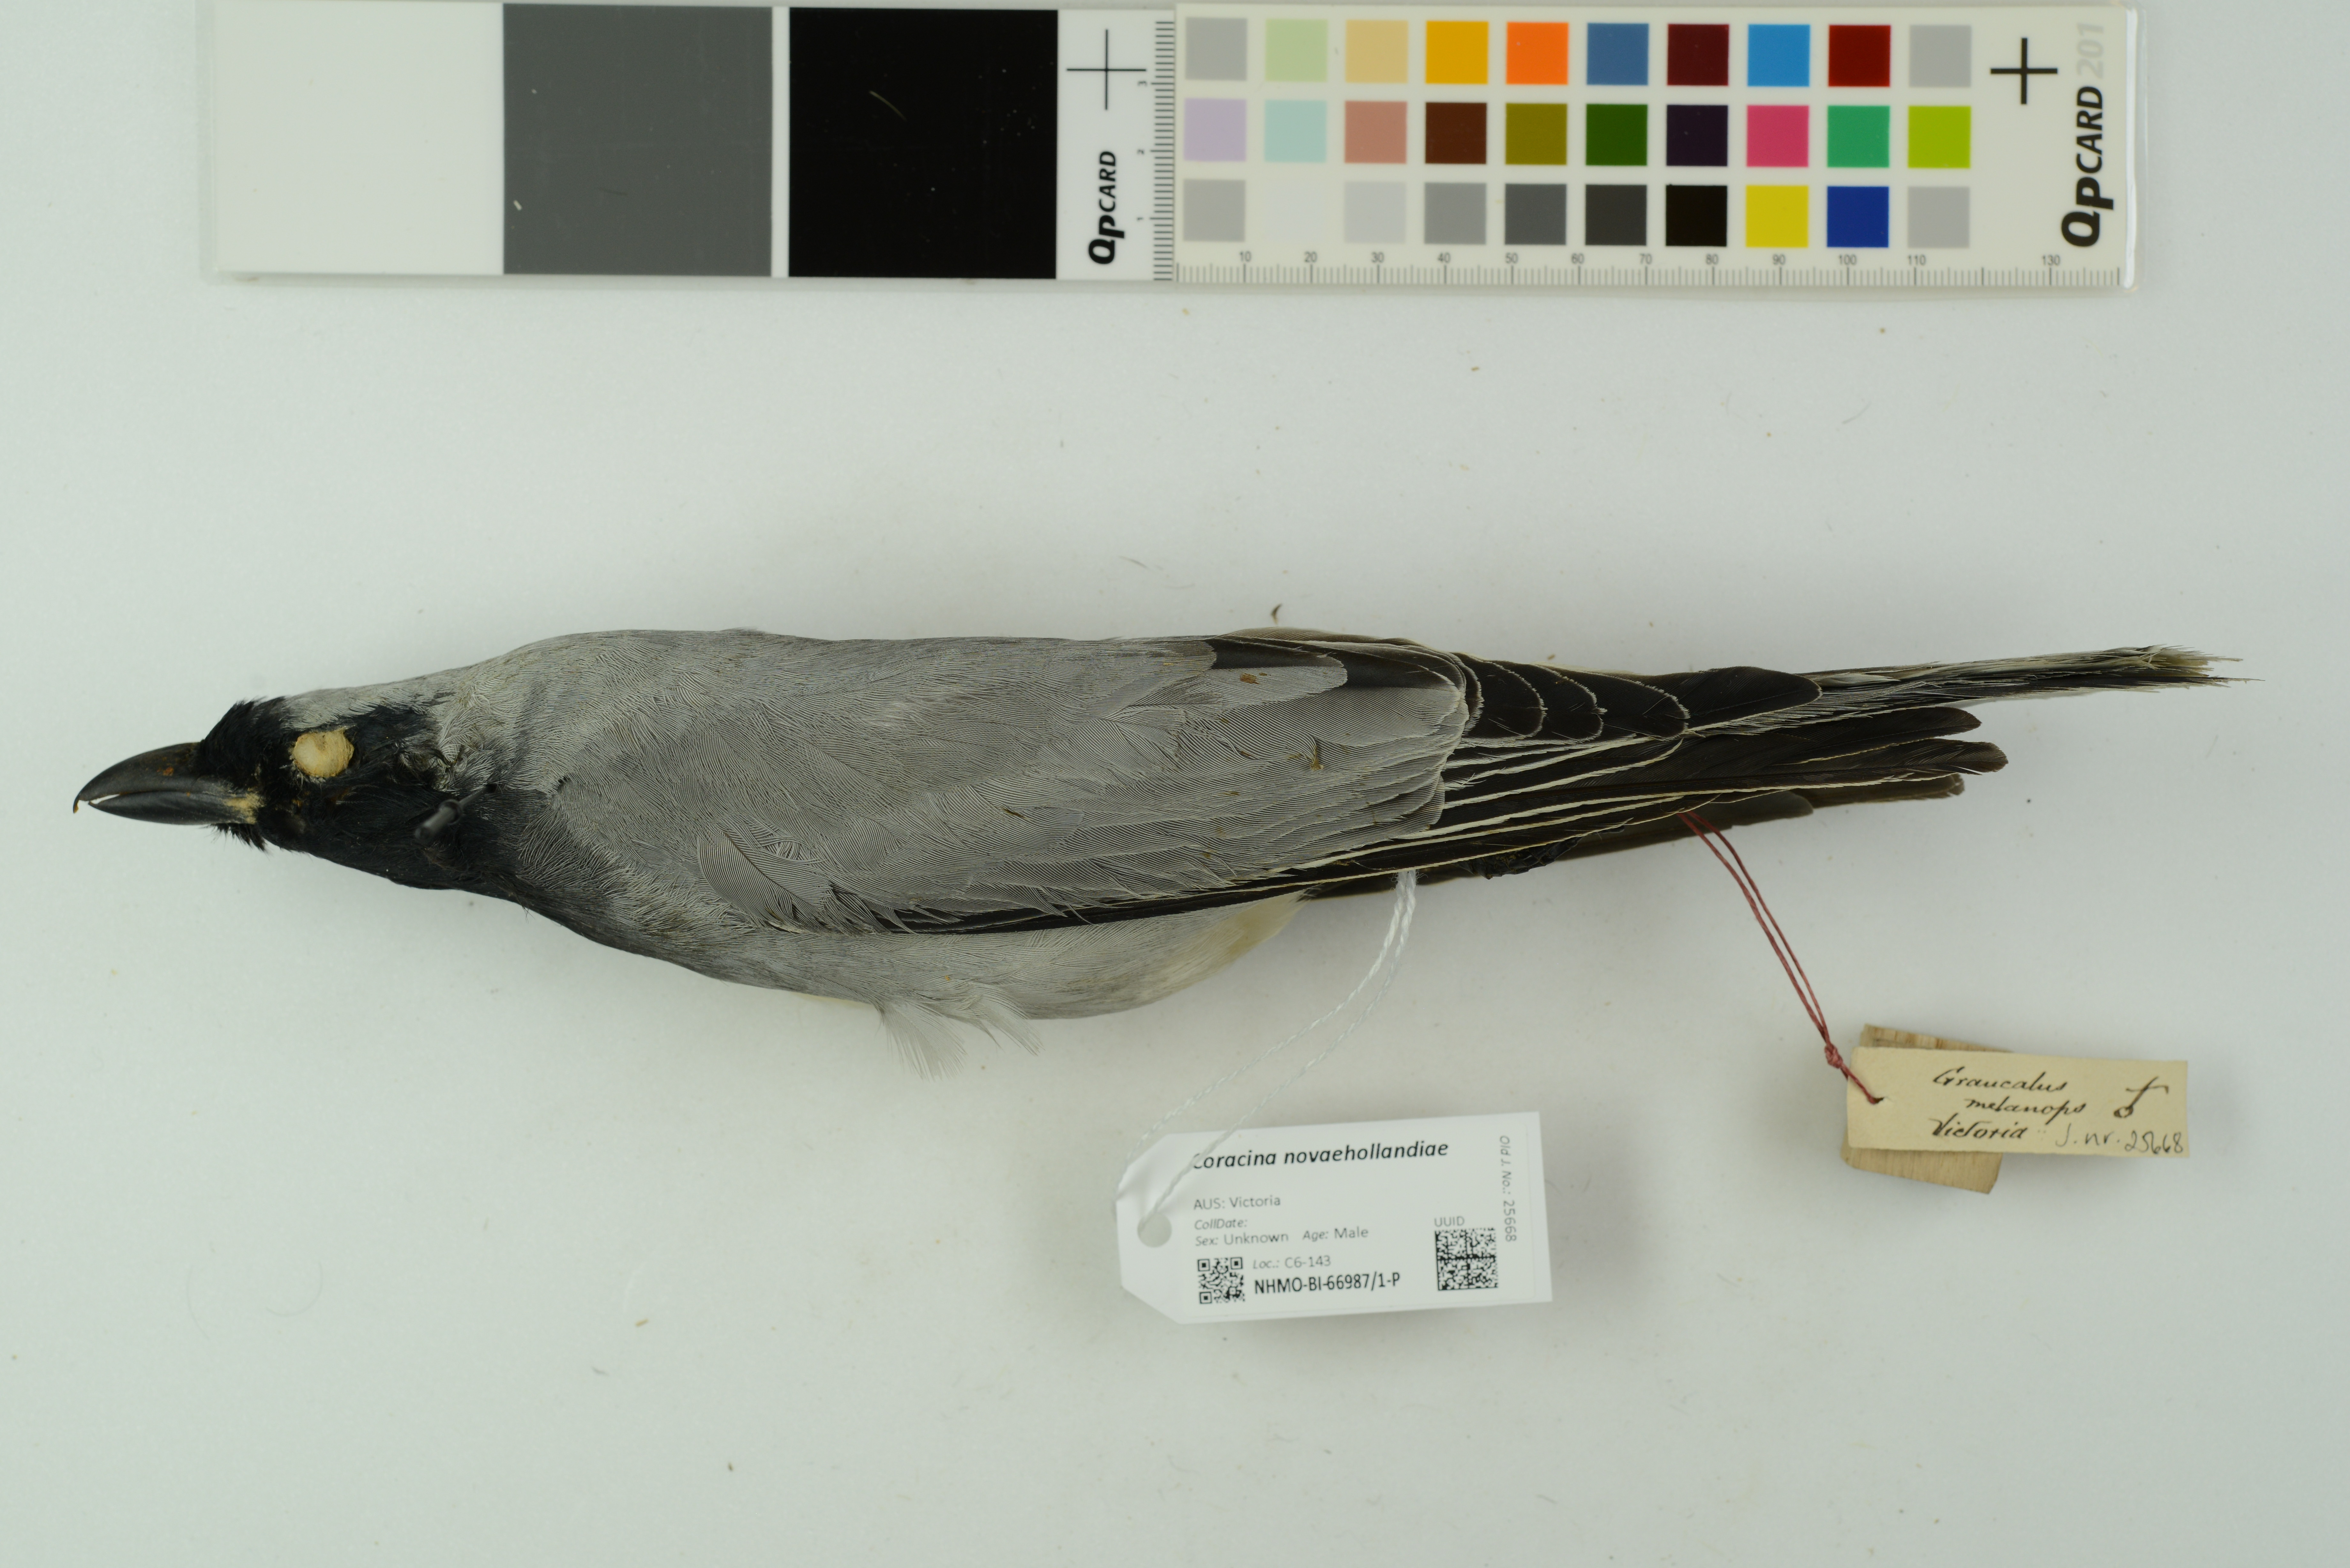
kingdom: Animalia
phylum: Chordata
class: Aves
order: Passeriformes
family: Campephagidae
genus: Coracina
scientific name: Coracina novaehollandiae
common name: Black-faced cuckooshrike
